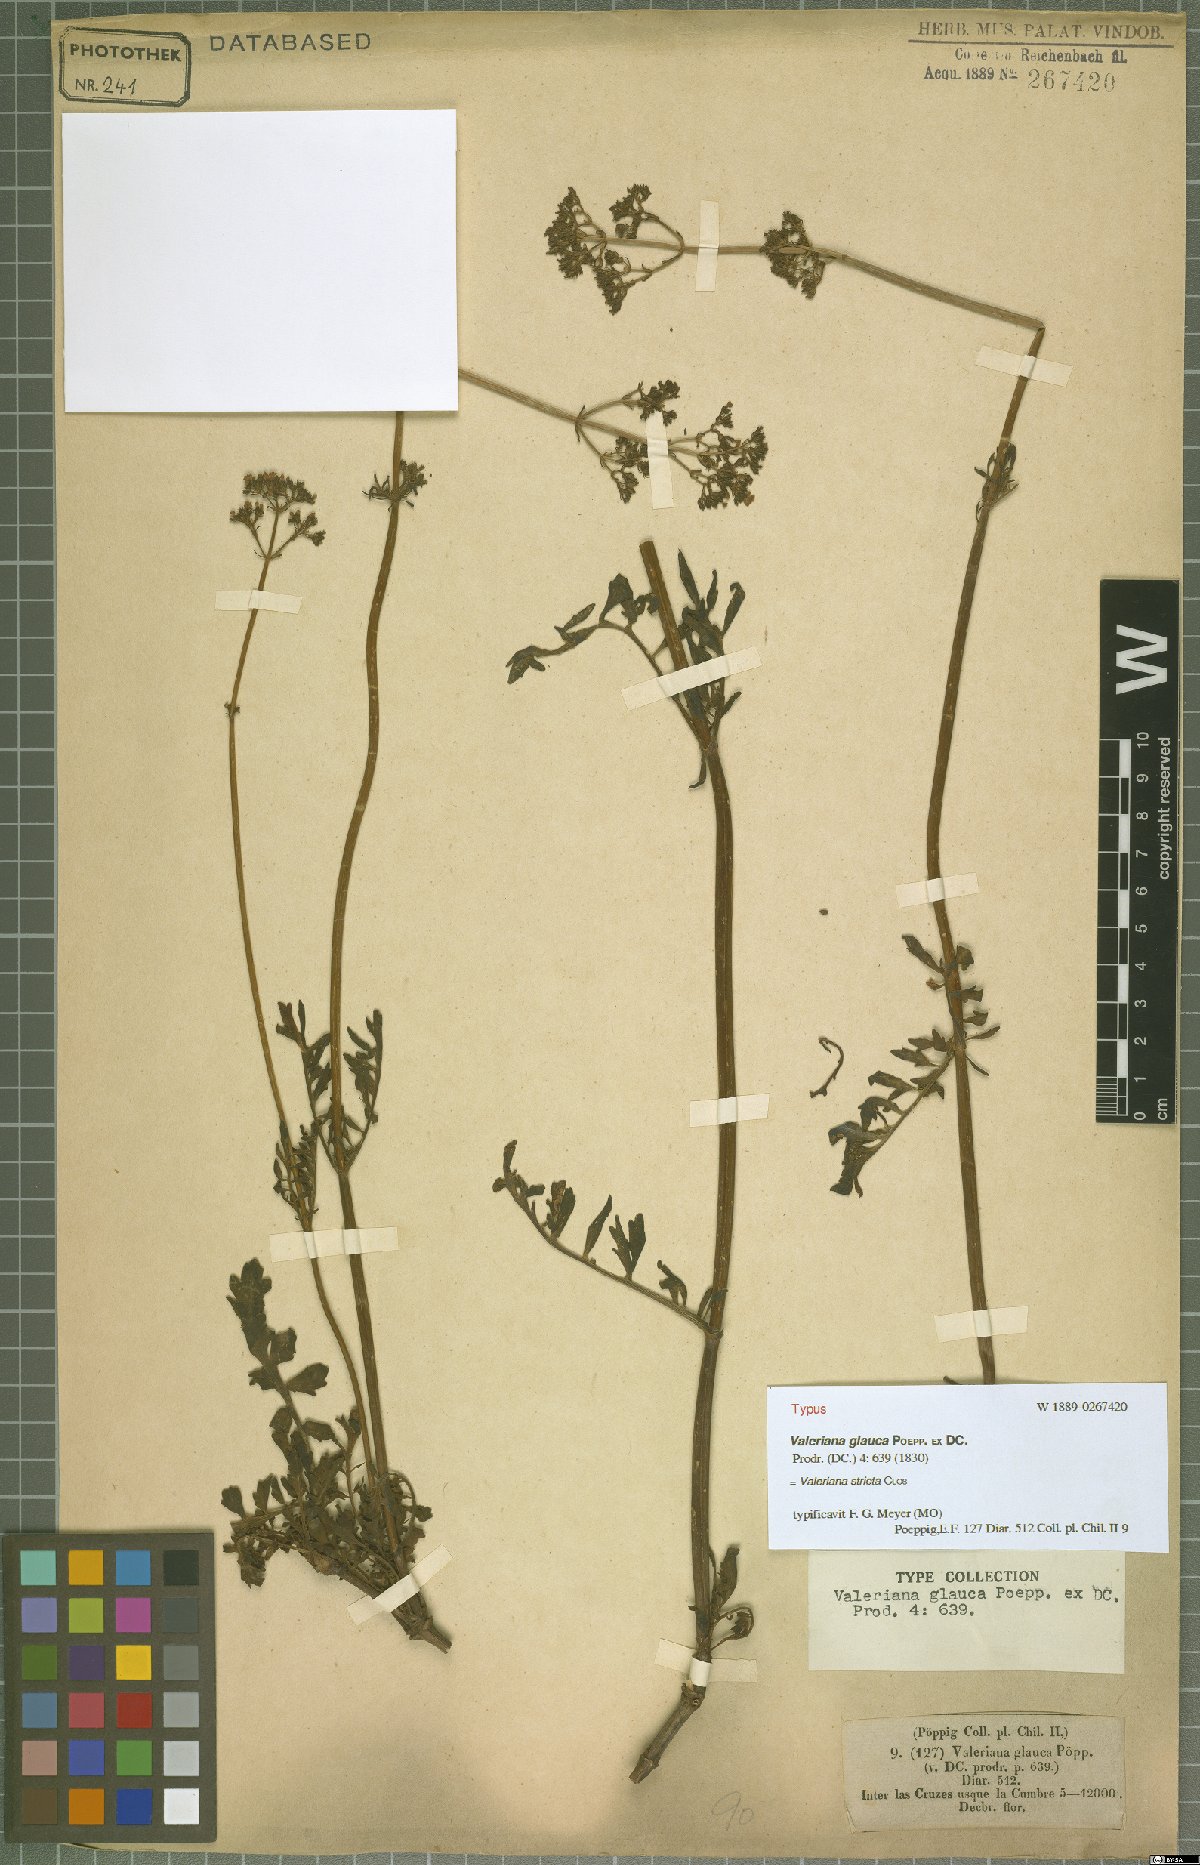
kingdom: Plantae
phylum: Tracheophyta
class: Magnoliopsida
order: Dipsacales
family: Caprifoliaceae
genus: Valeriana
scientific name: Valeriana stricta
